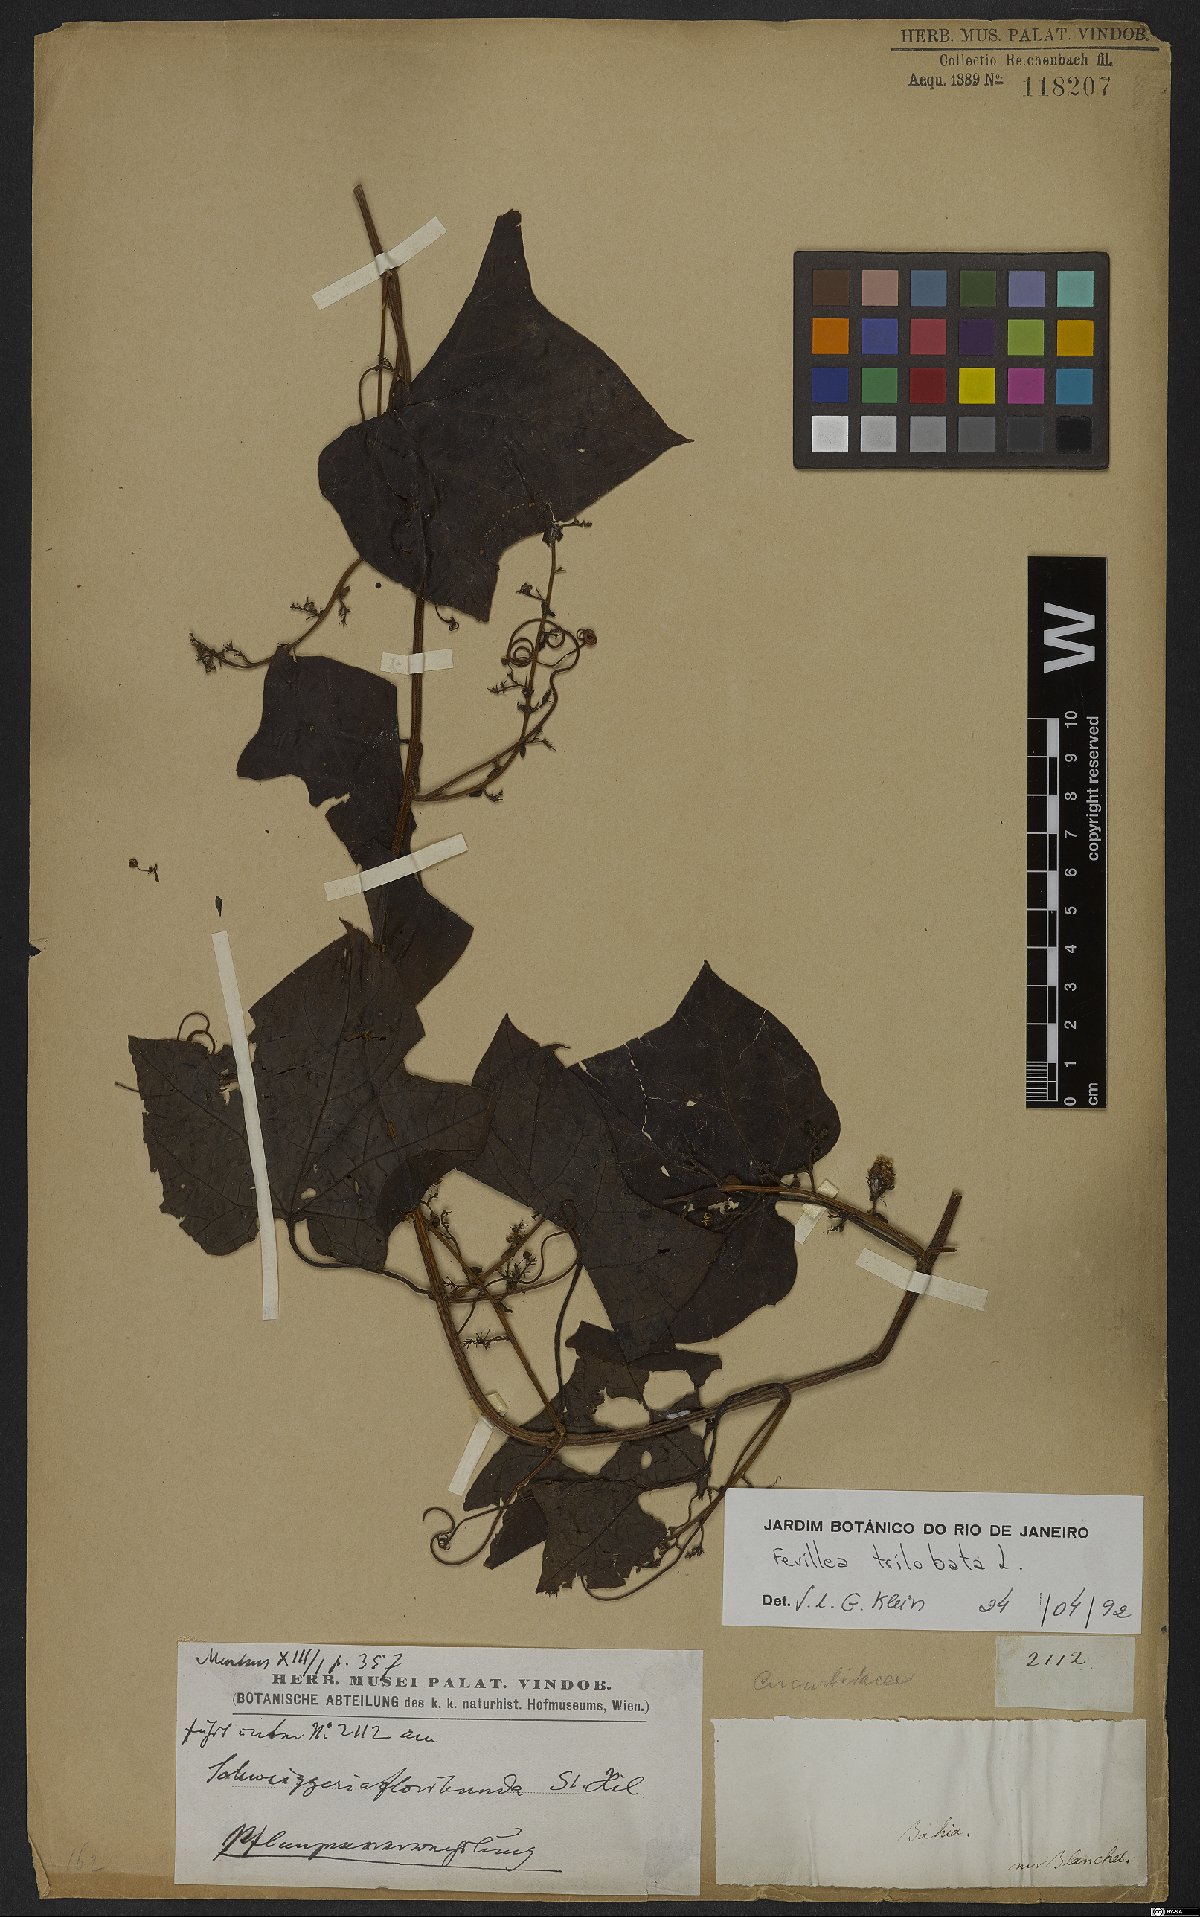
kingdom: Plantae
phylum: Tracheophyta
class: Magnoliopsida
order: Cucurbitales
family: Cucurbitaceae
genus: Fevillea
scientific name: Fevillea trilobata
